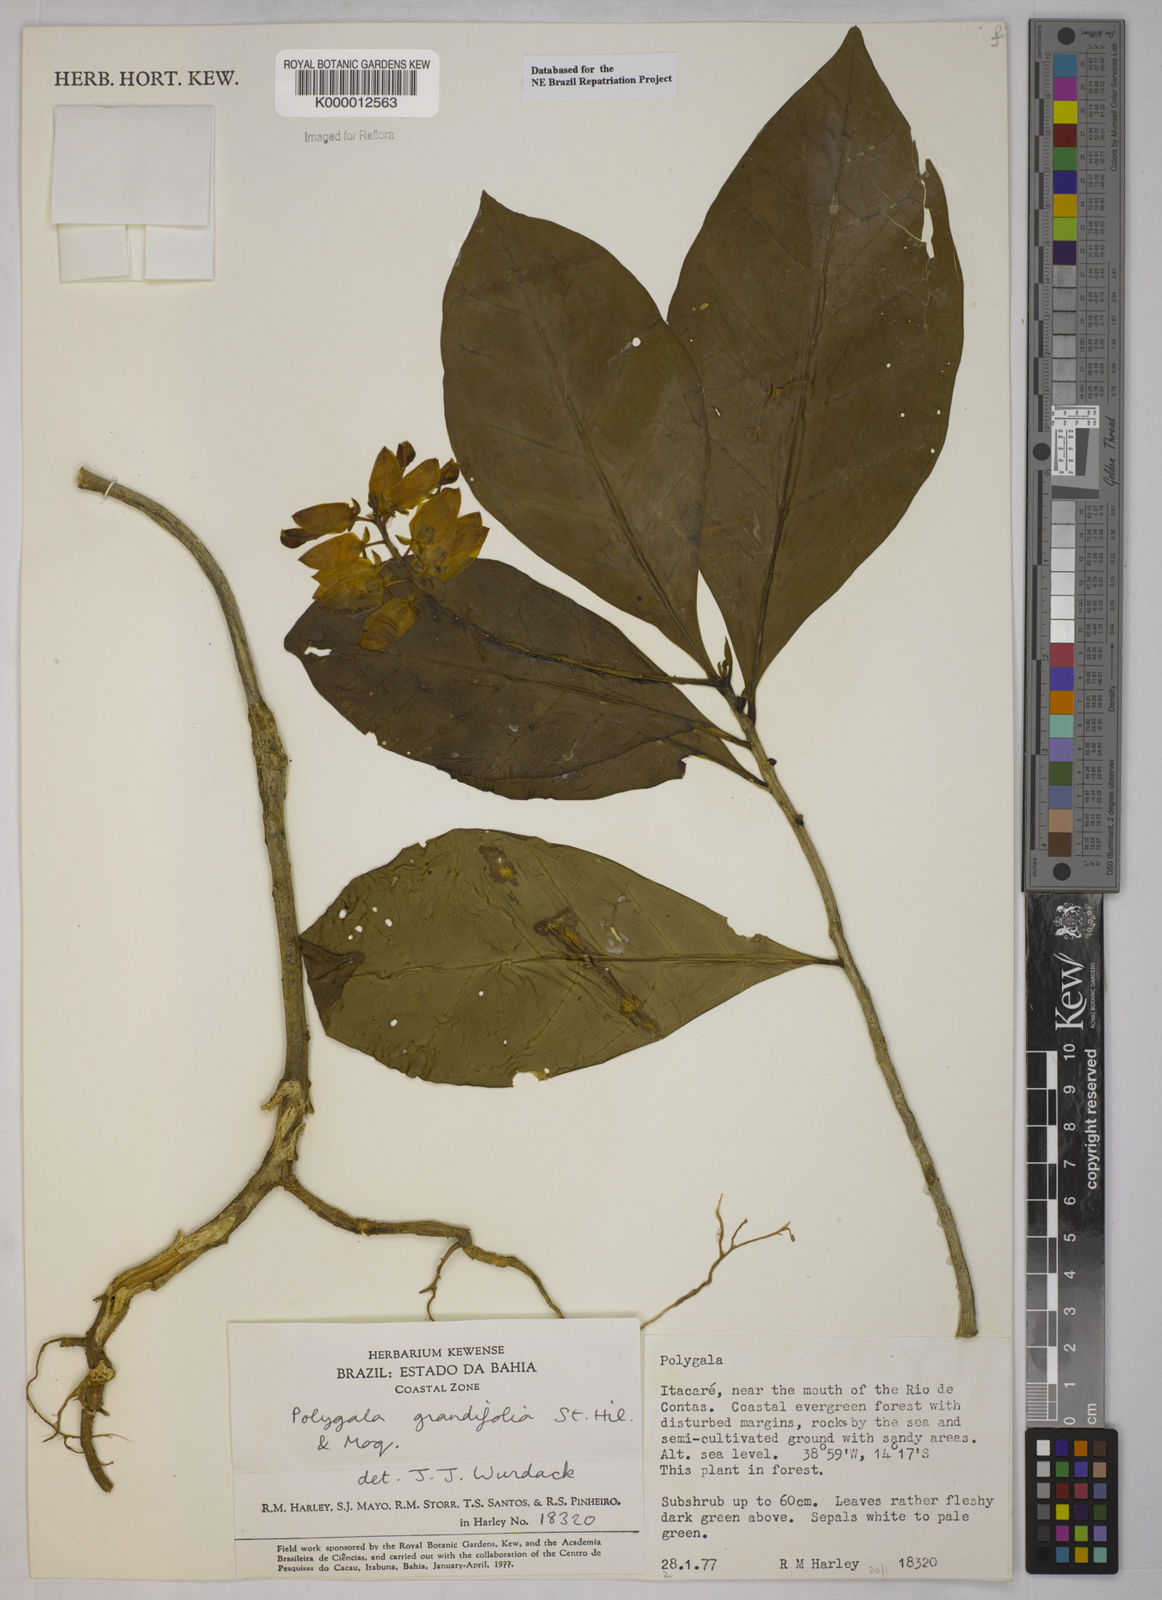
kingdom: Plantae
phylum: Tracheophyta
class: Magnoliopsida
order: Fabales
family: Polygalaceae
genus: Caamembeca
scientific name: Caamembeca grandifolia
